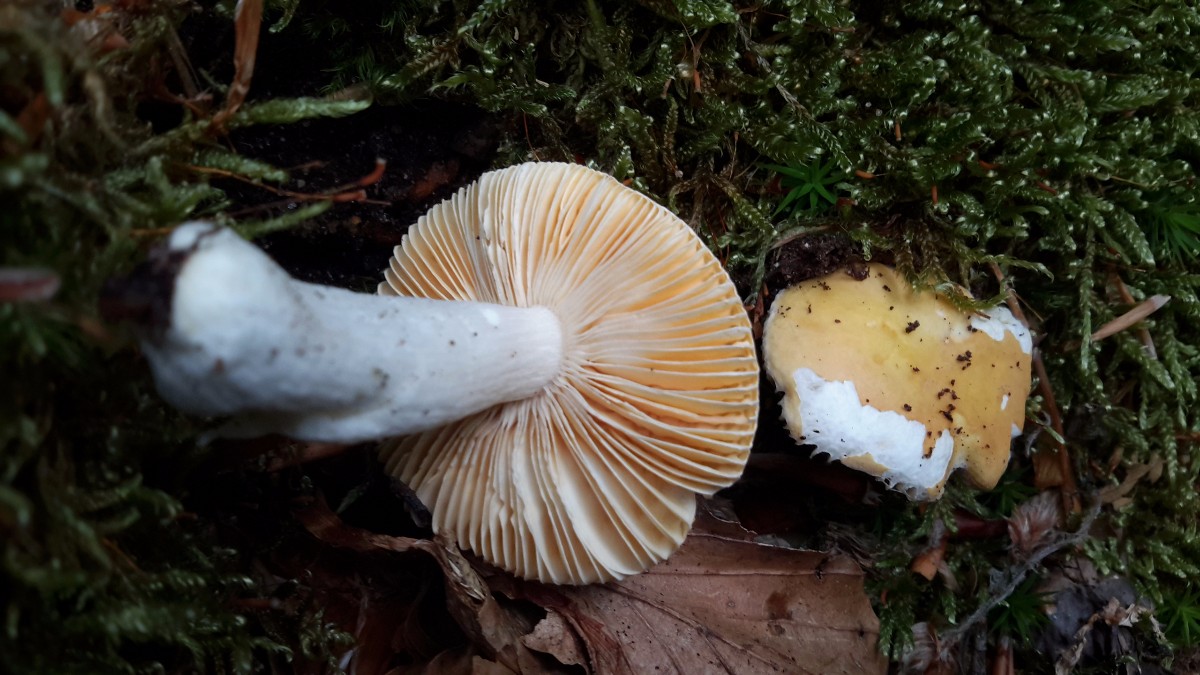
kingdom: Fungi
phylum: Basidiomycota
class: Agaricomycetes
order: Russulales
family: Russulaceae
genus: Russula
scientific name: Russula risigallina
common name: abrikos-skørhat
